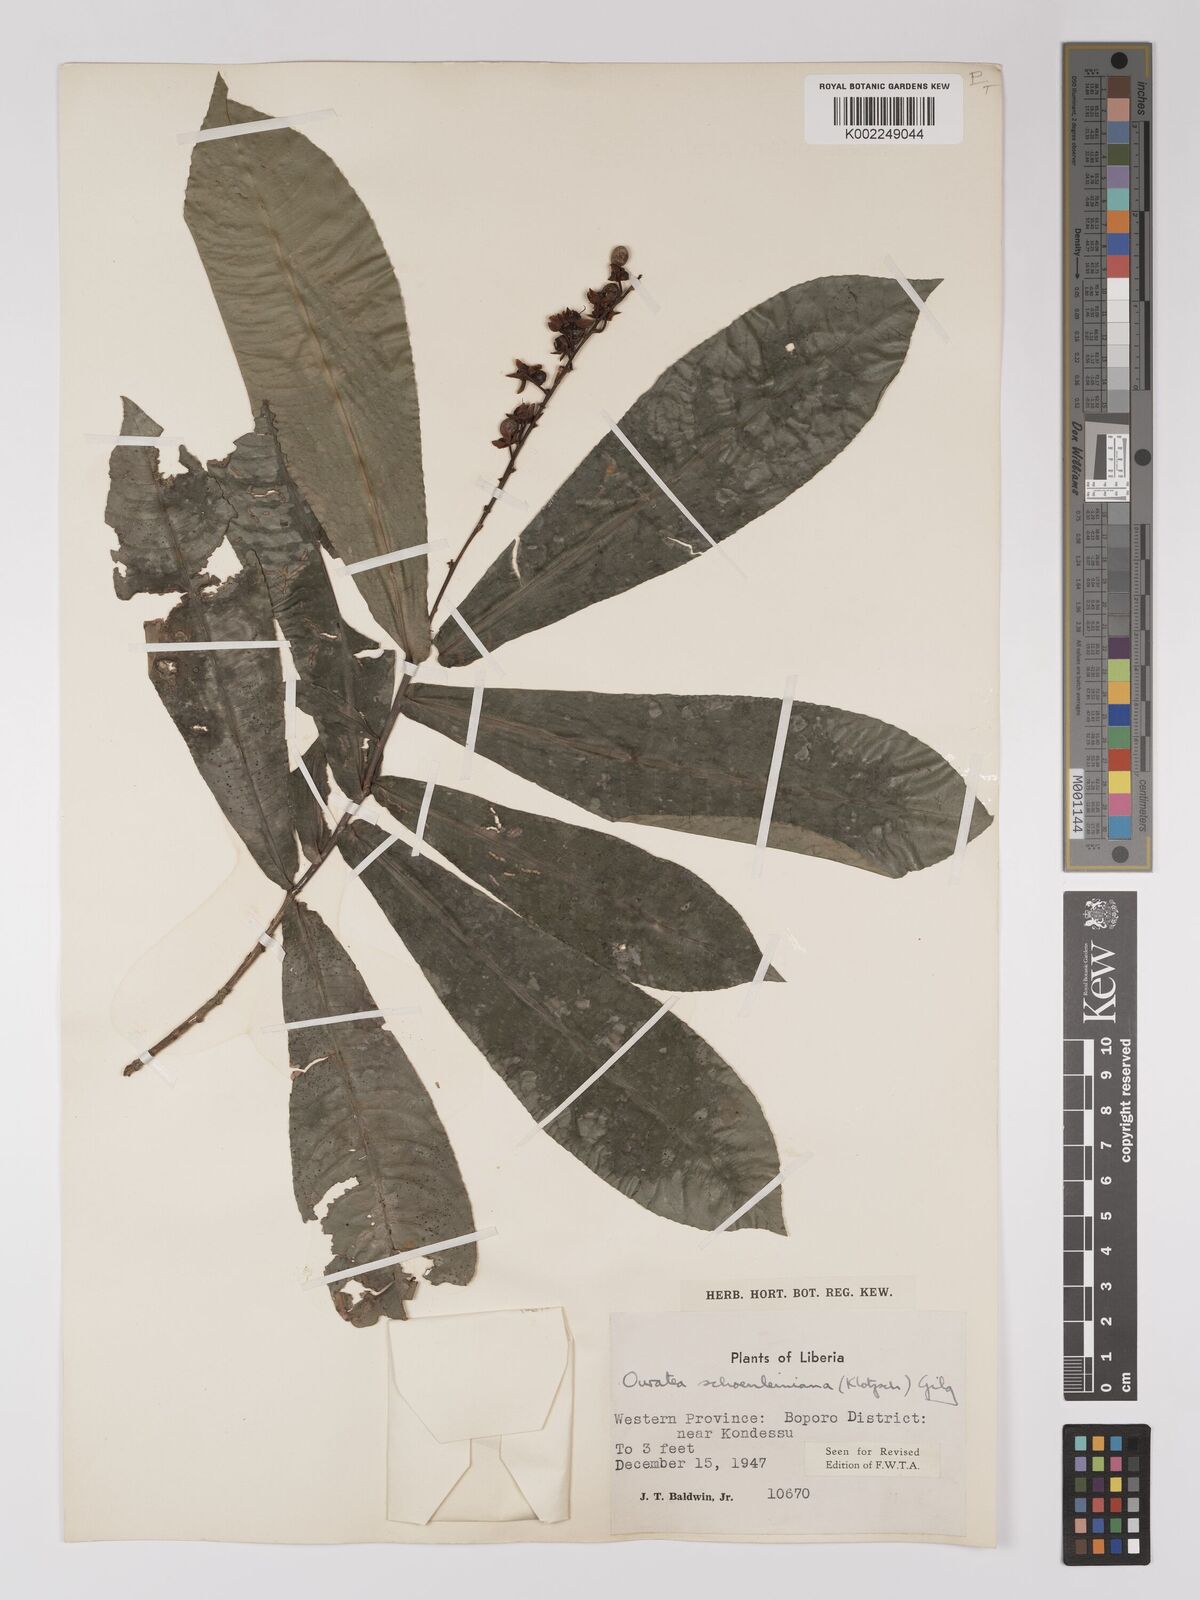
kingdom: Plantae
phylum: Tracheophyta
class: Magnoliopsida
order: Malpighiales
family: Ochnaceae
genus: Campylospermum
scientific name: Campylospermum schoenleinianum
